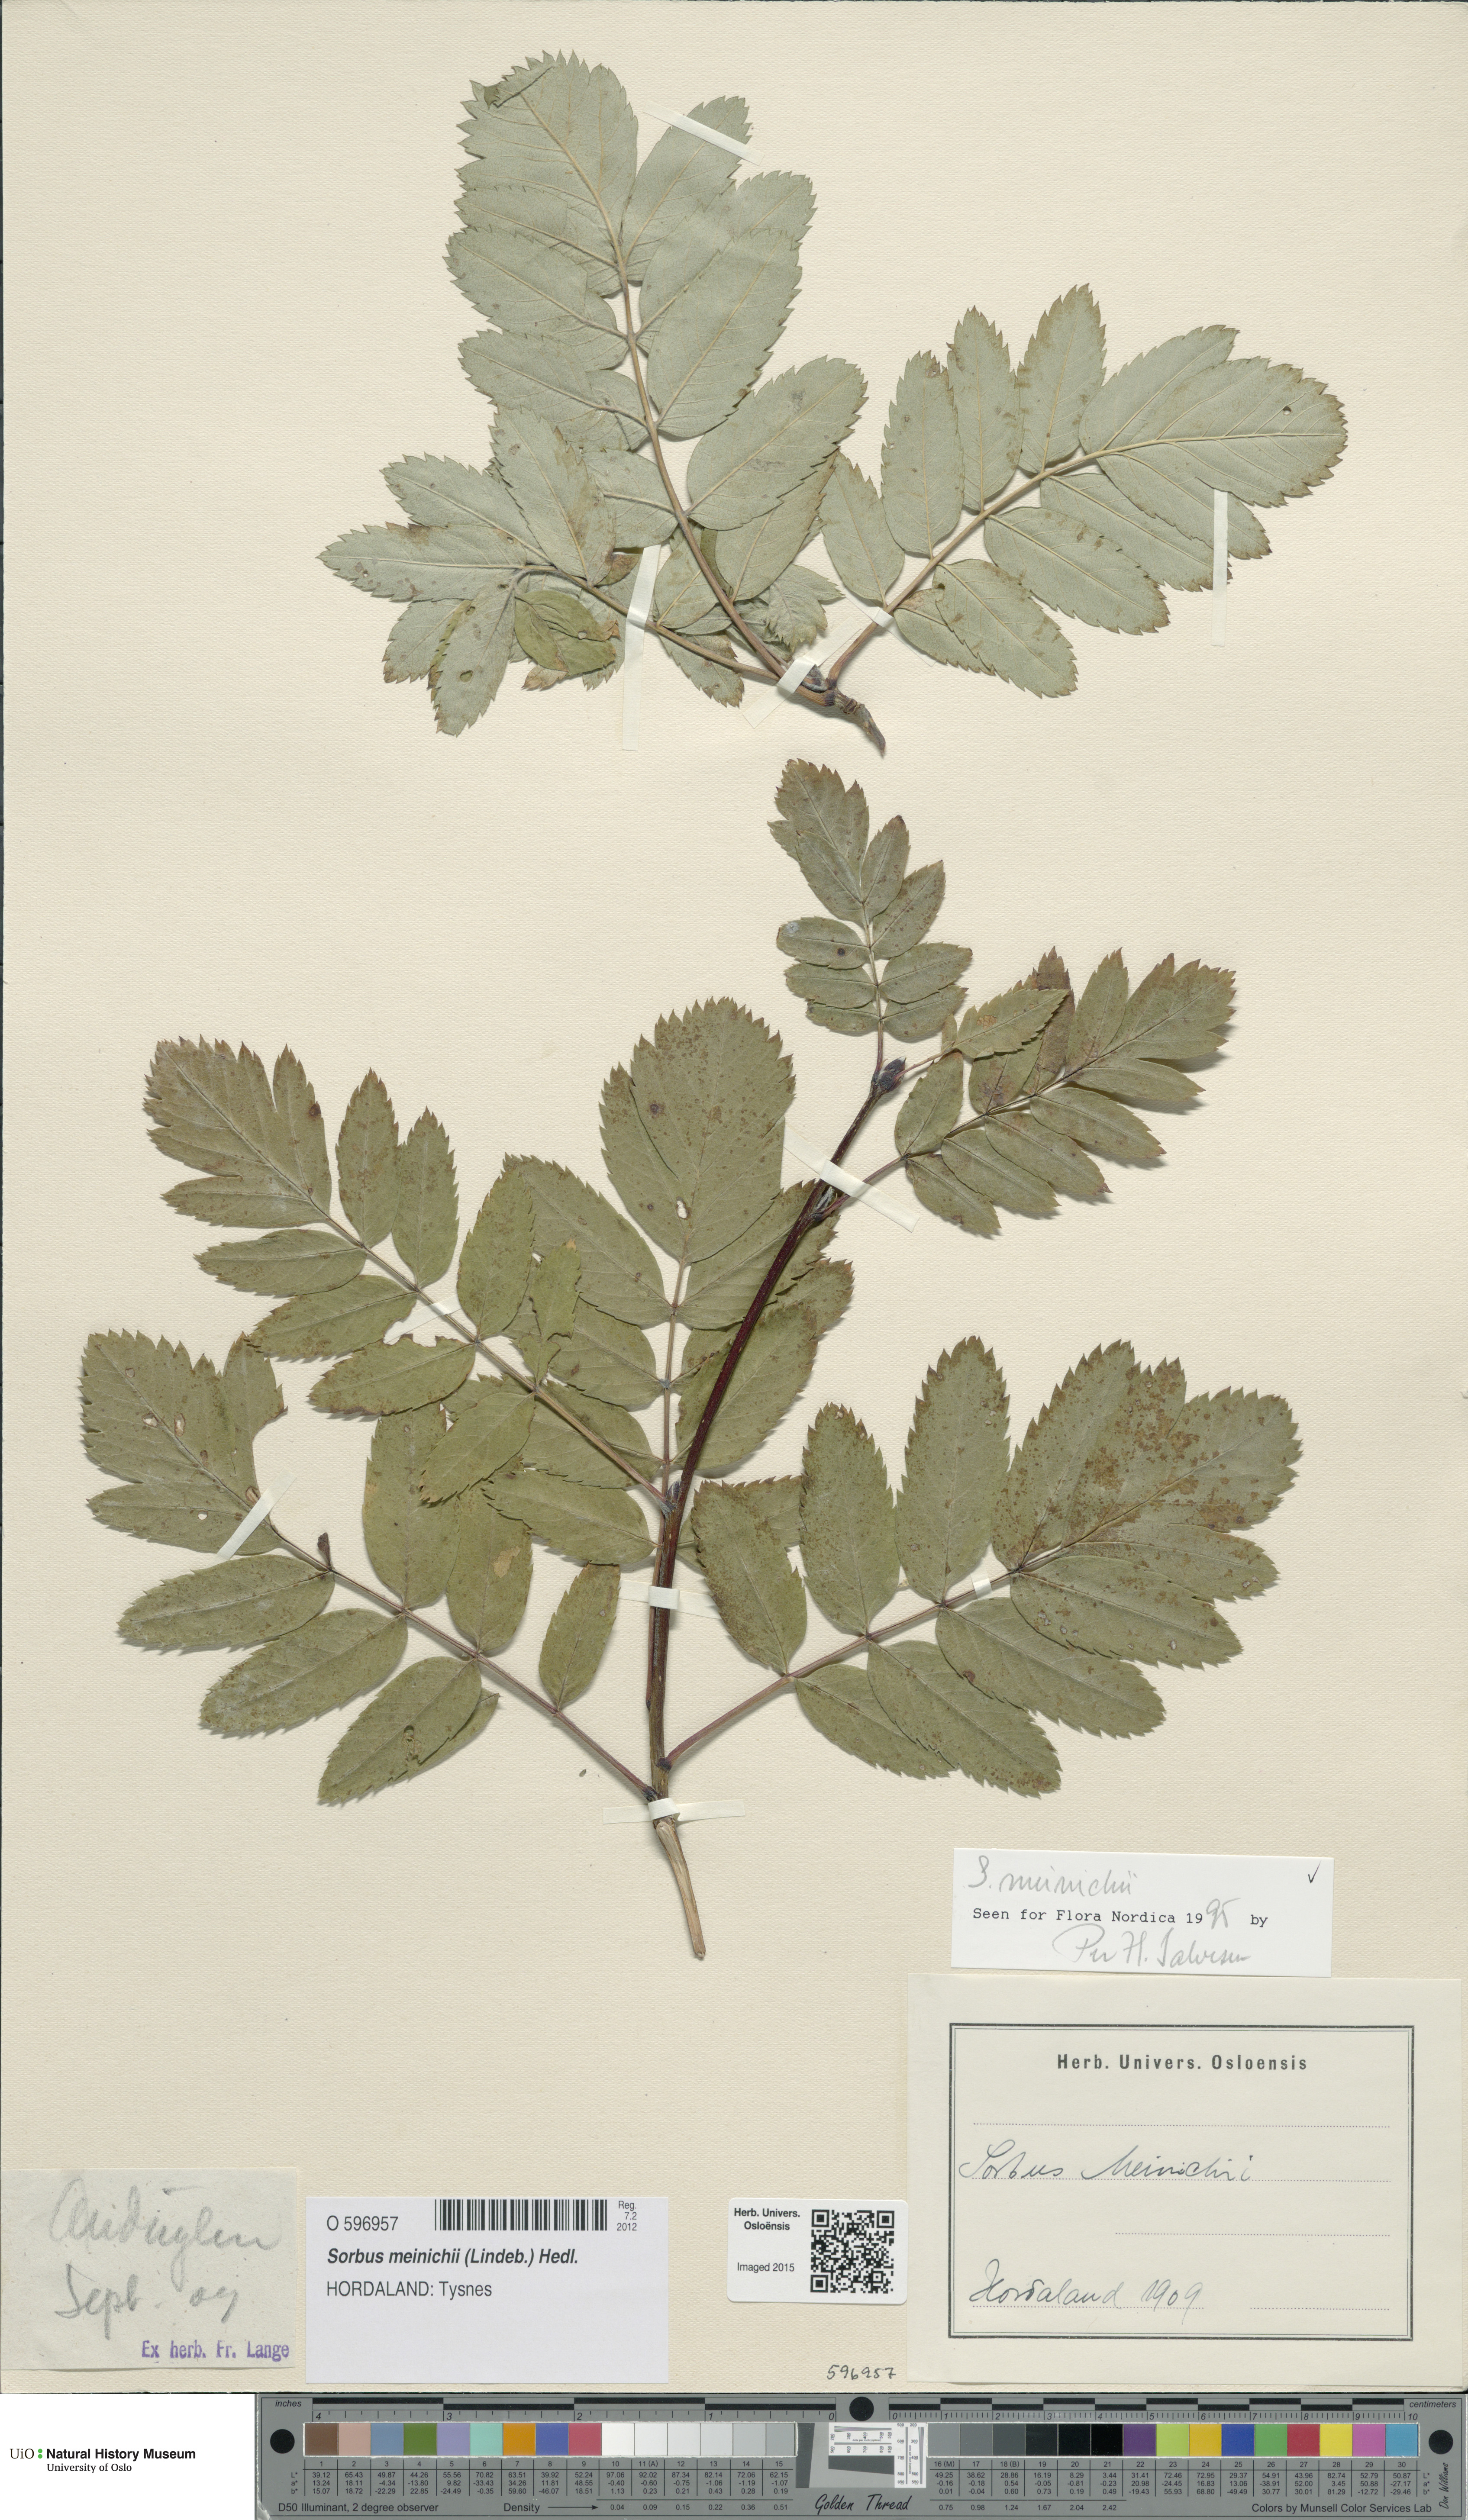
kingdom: Plantae
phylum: Tracheophyta
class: Magnoliopsida
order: Rosales
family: Rosaceae
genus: Hedlundia
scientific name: Hedlundia meinichii
